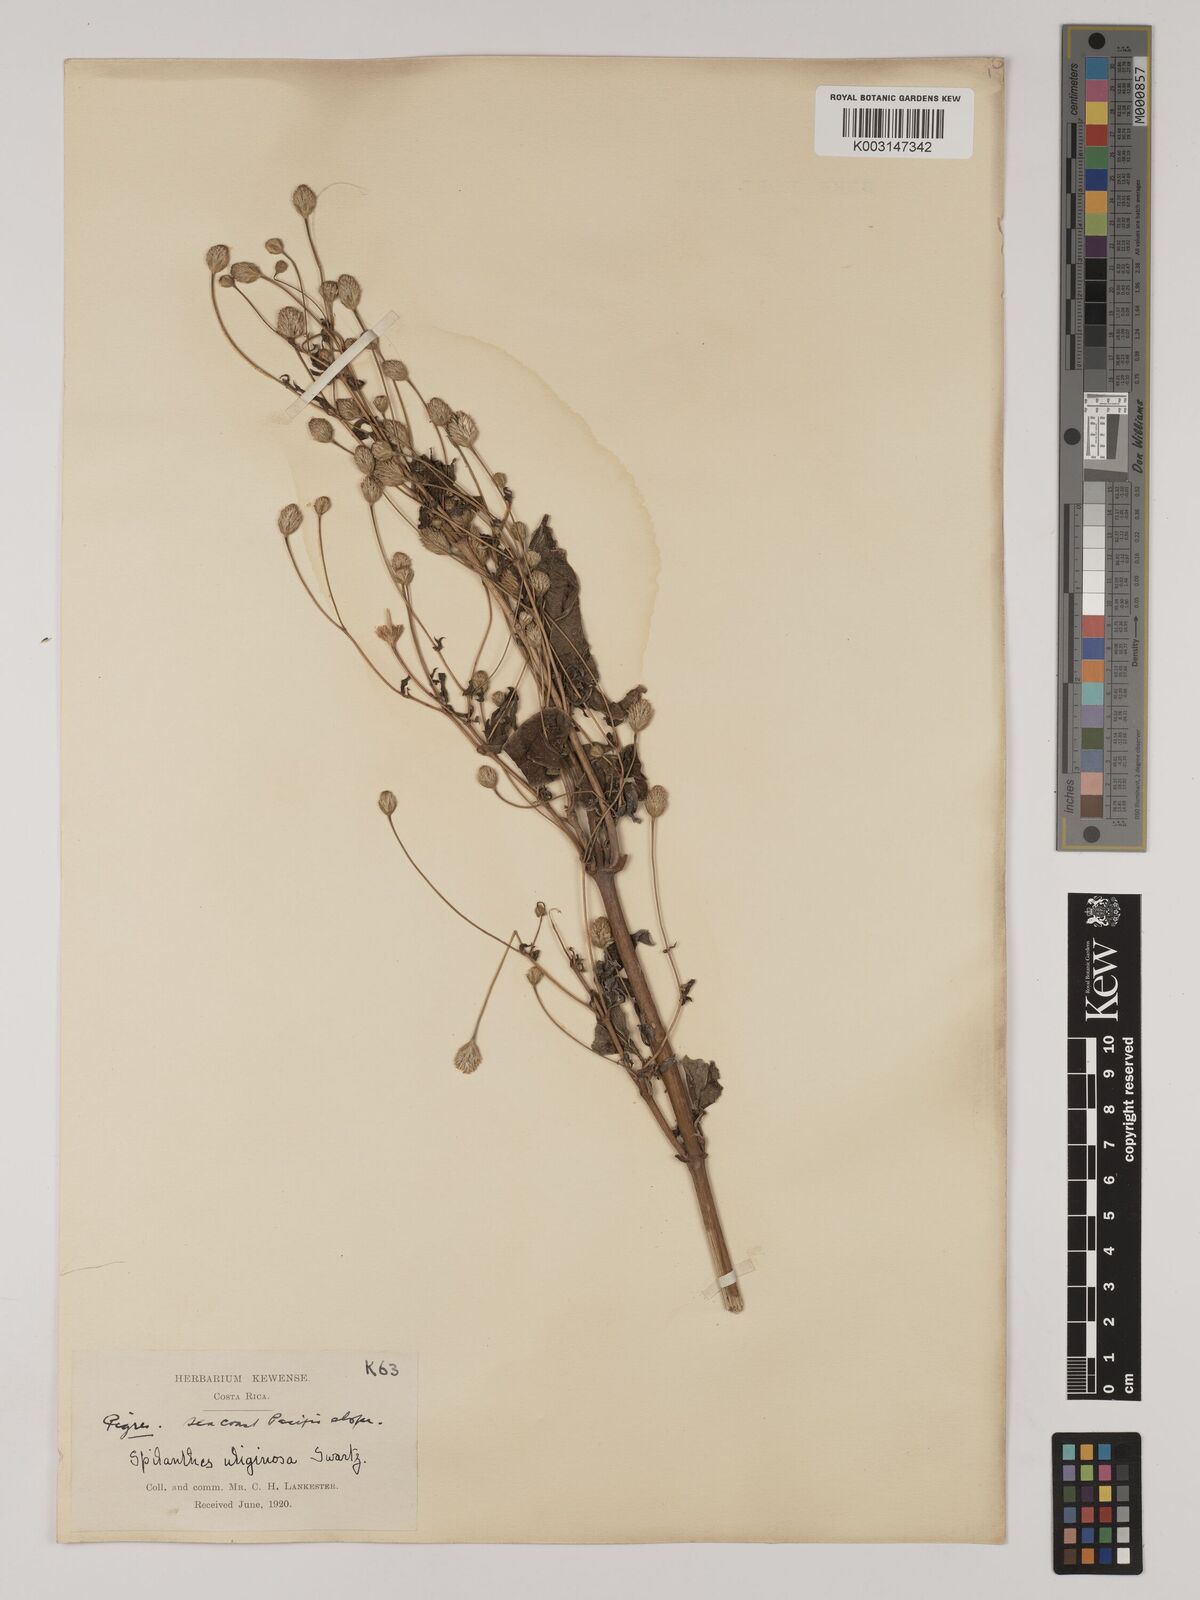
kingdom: Plantae
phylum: Tracheophyta
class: Magnoliopsida
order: Asterales
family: Asteraceae
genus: Acmella
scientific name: Acmella radicans
